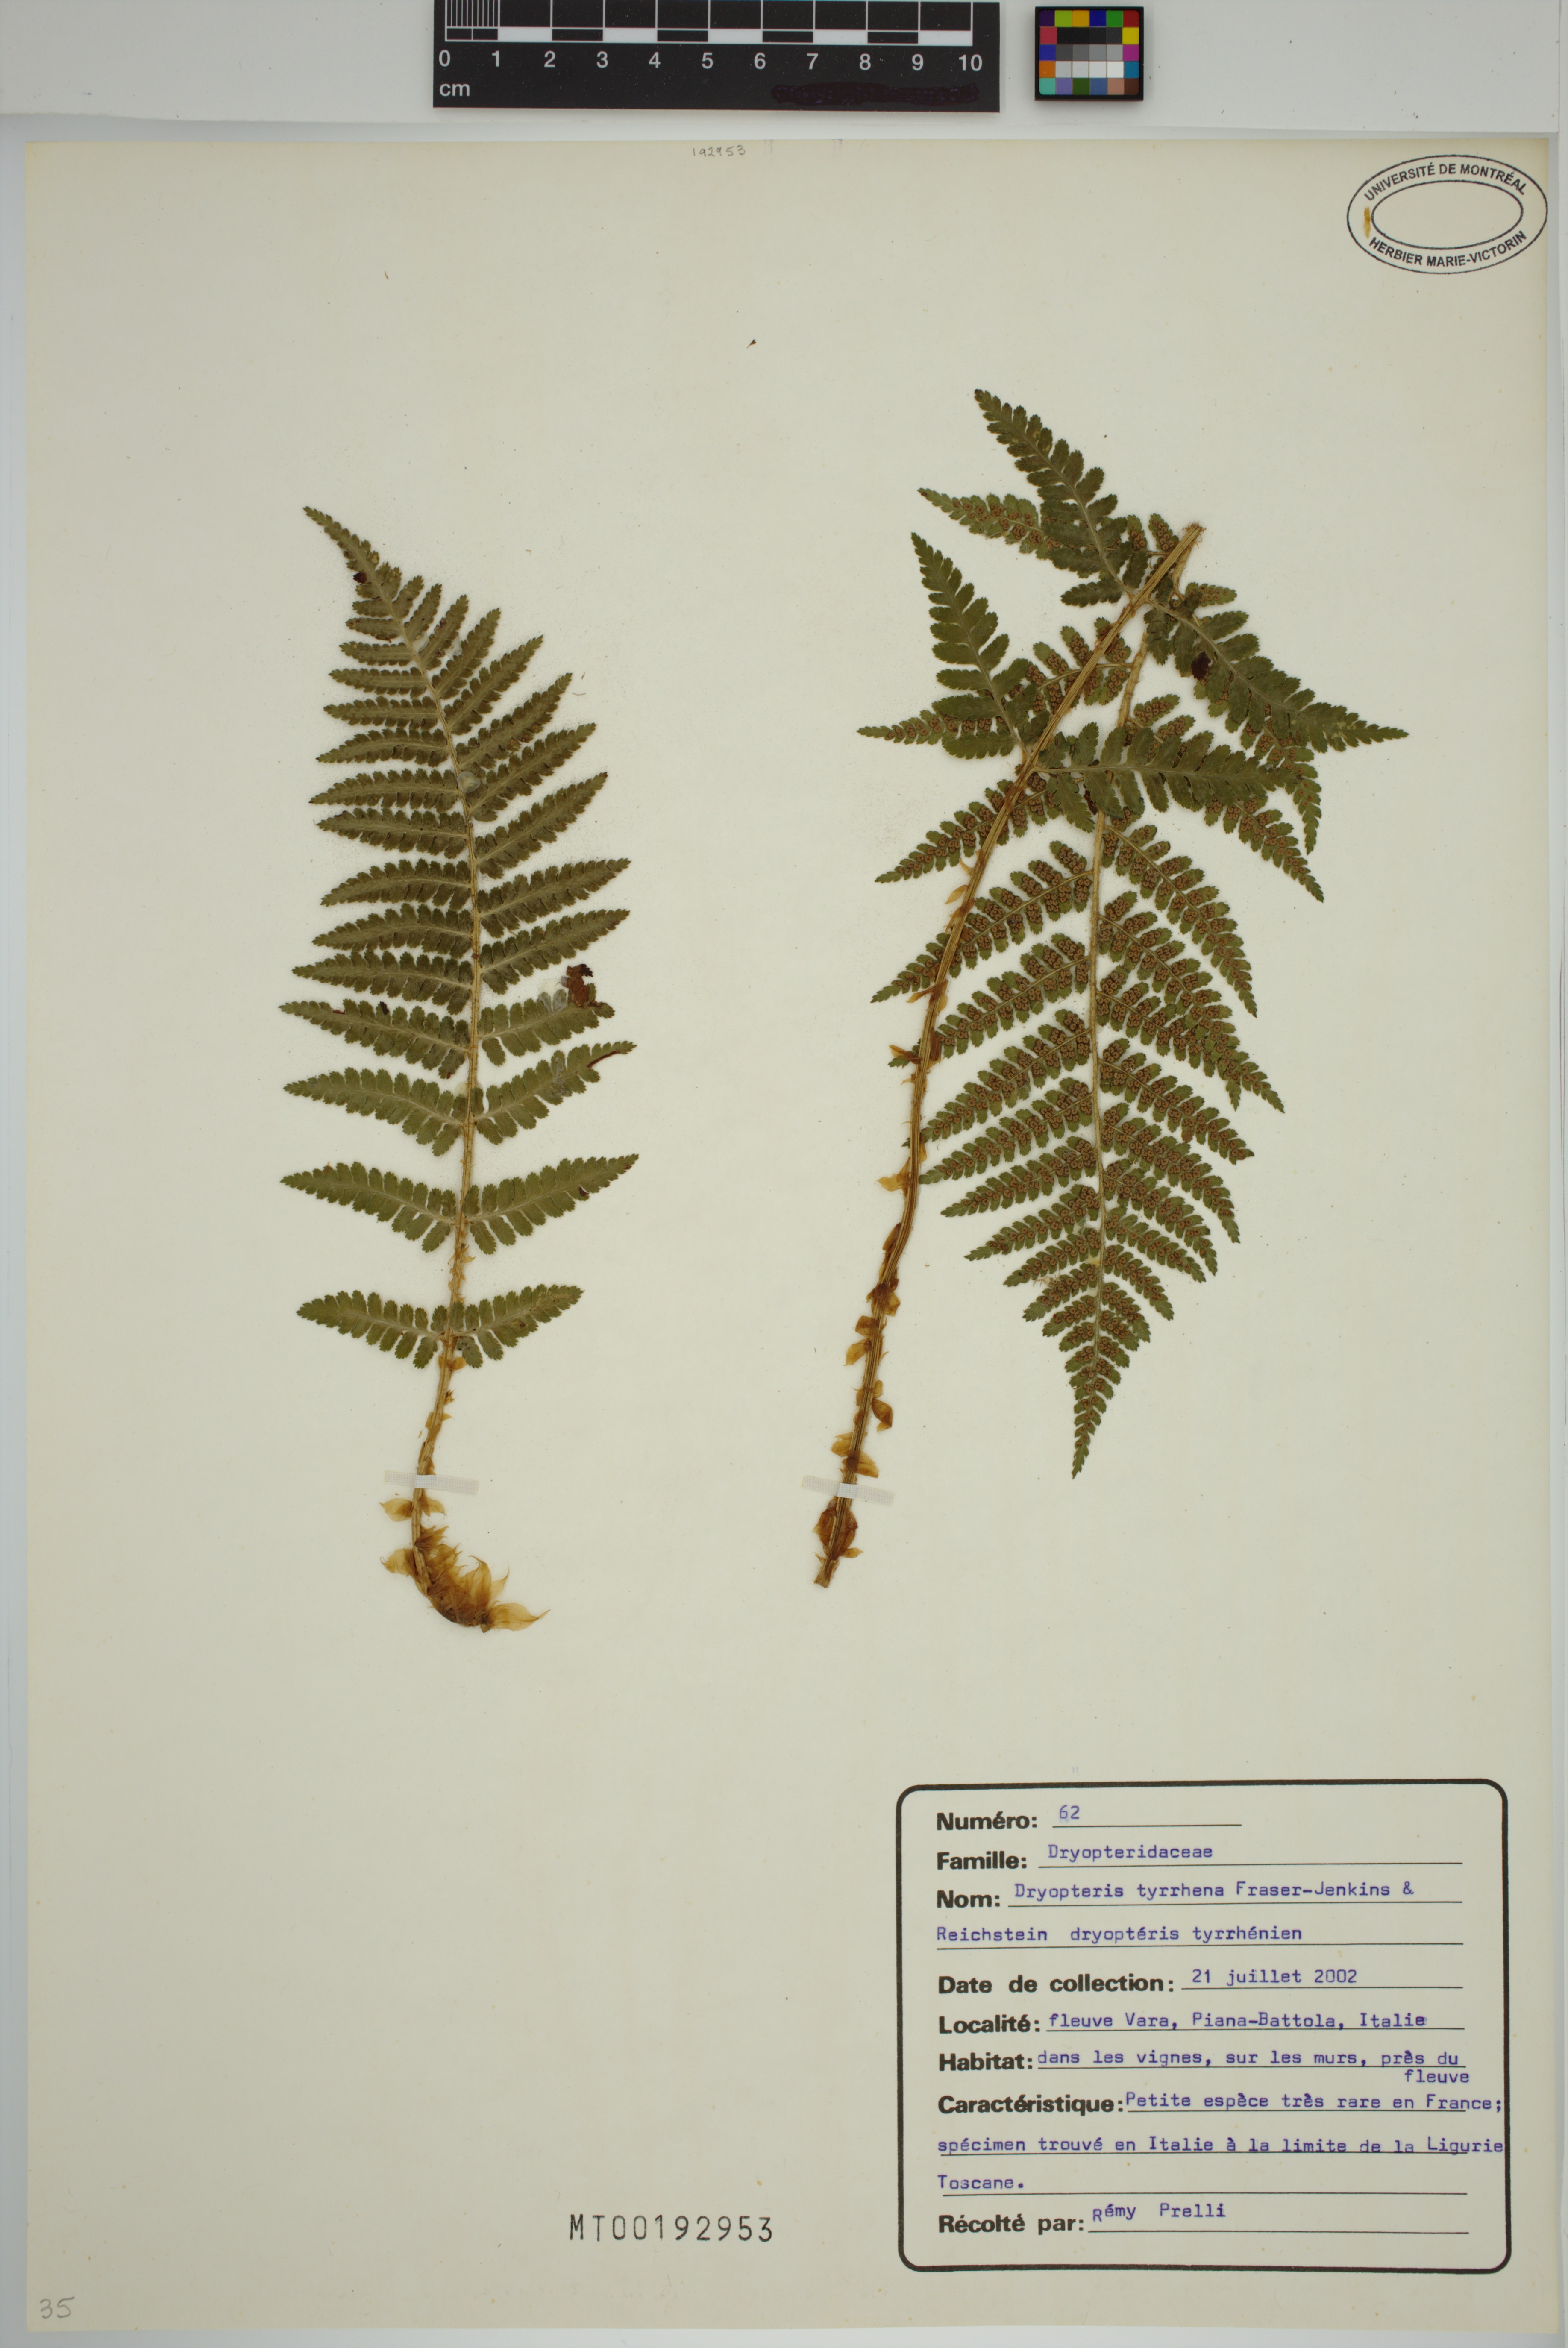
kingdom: Plantae
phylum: Tracheophyta
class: Polypodiopsida
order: Polypodiales
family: Dryopteridaceae
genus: Dryopteris
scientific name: Dryopteris tyrrhena
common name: Mediterranean buckler-fern
